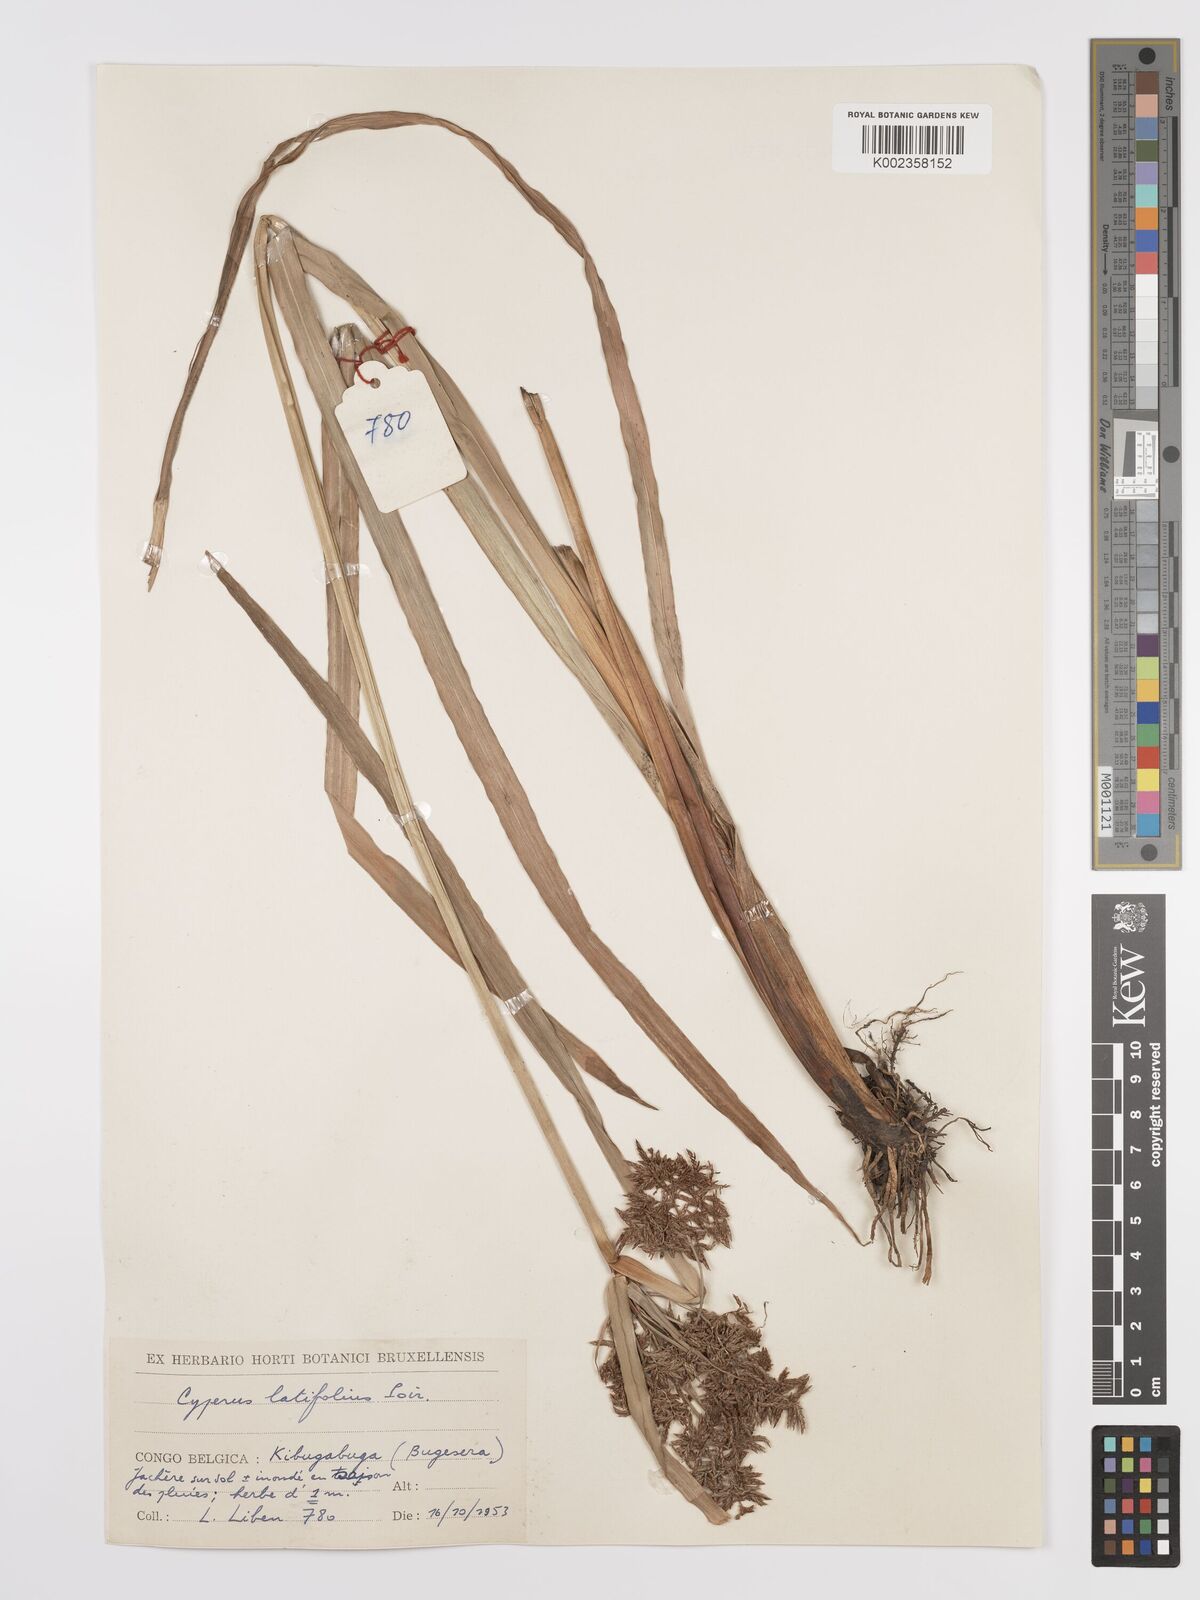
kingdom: Plantae
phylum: Tracheophyta
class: Liliopsida
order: Poales
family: Cyperaceae
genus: Cyperus
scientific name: Cyperus latifolius
